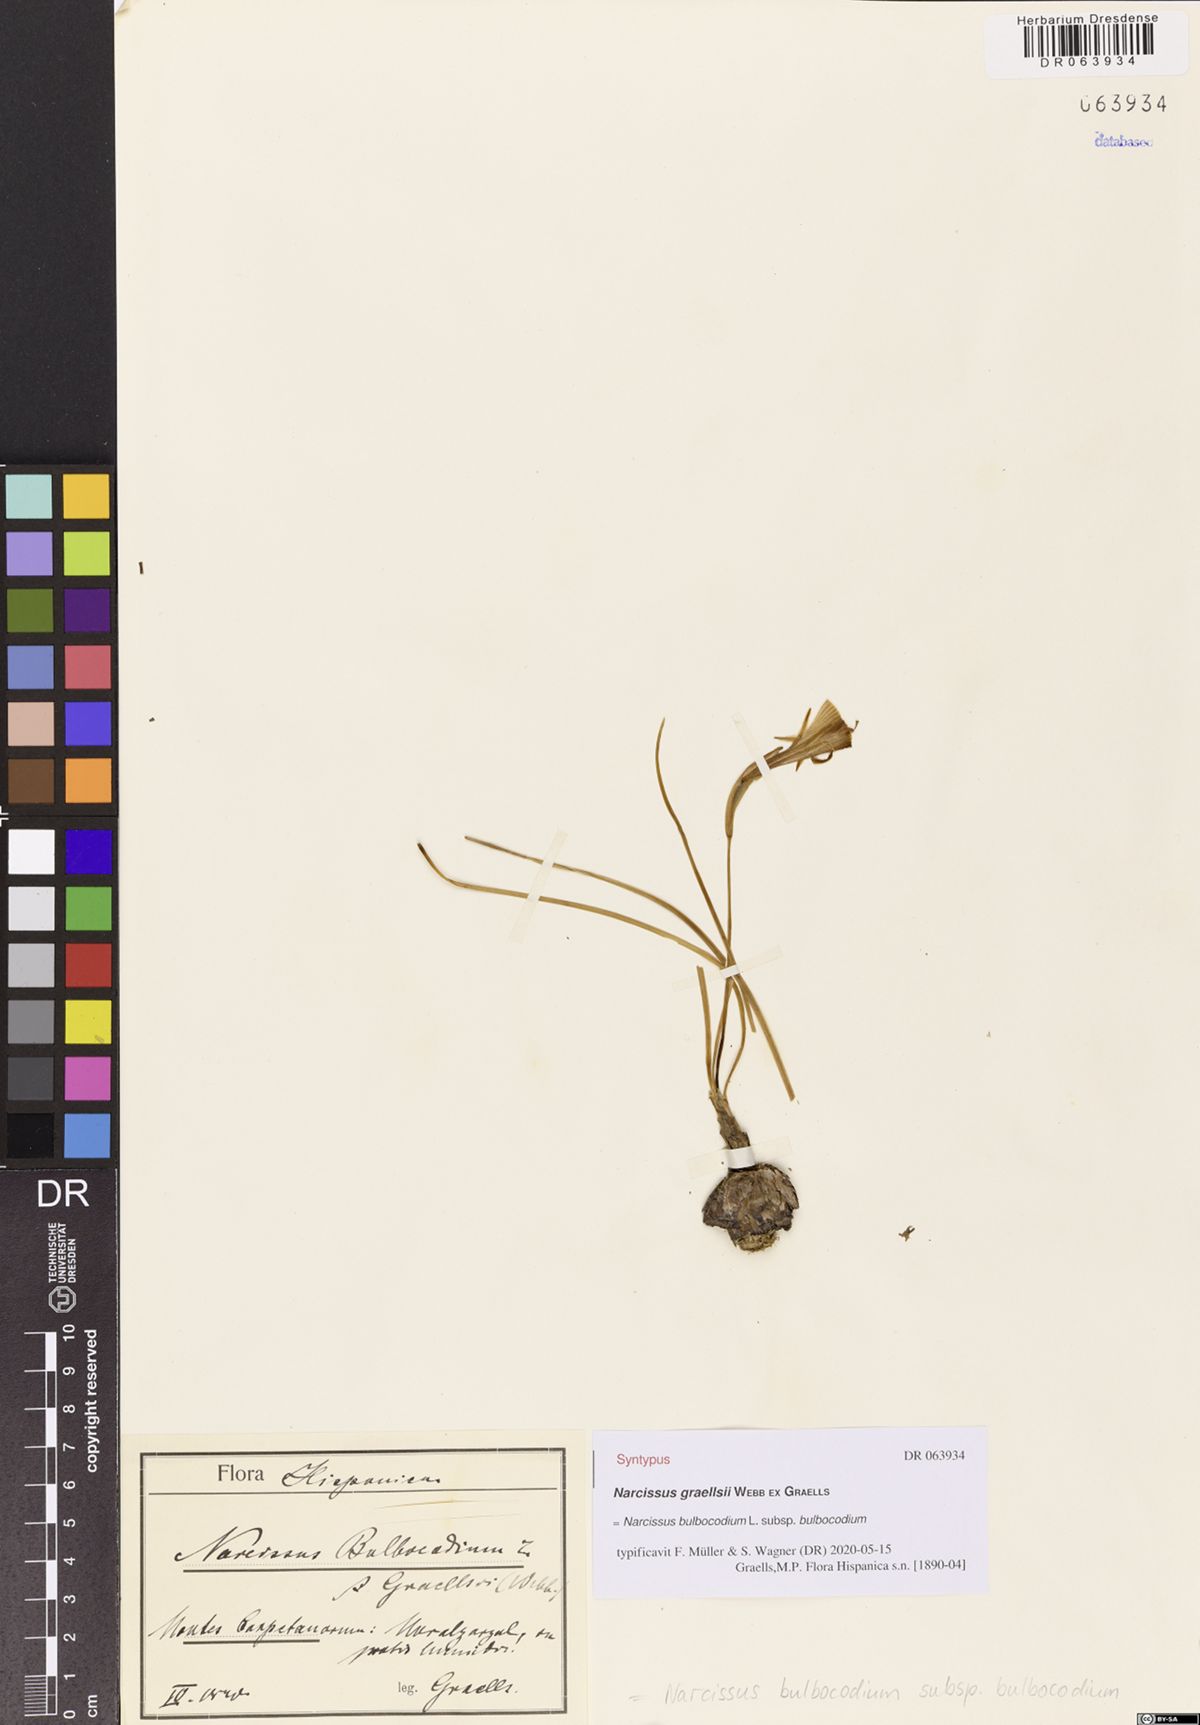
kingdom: Plantae
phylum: Tracheophyta
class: Liliopsida
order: Asparagales
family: Amaryllidaceae
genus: Narcissus
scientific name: Narcissus bulbocodium
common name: Hoop-petticoat daffodil
